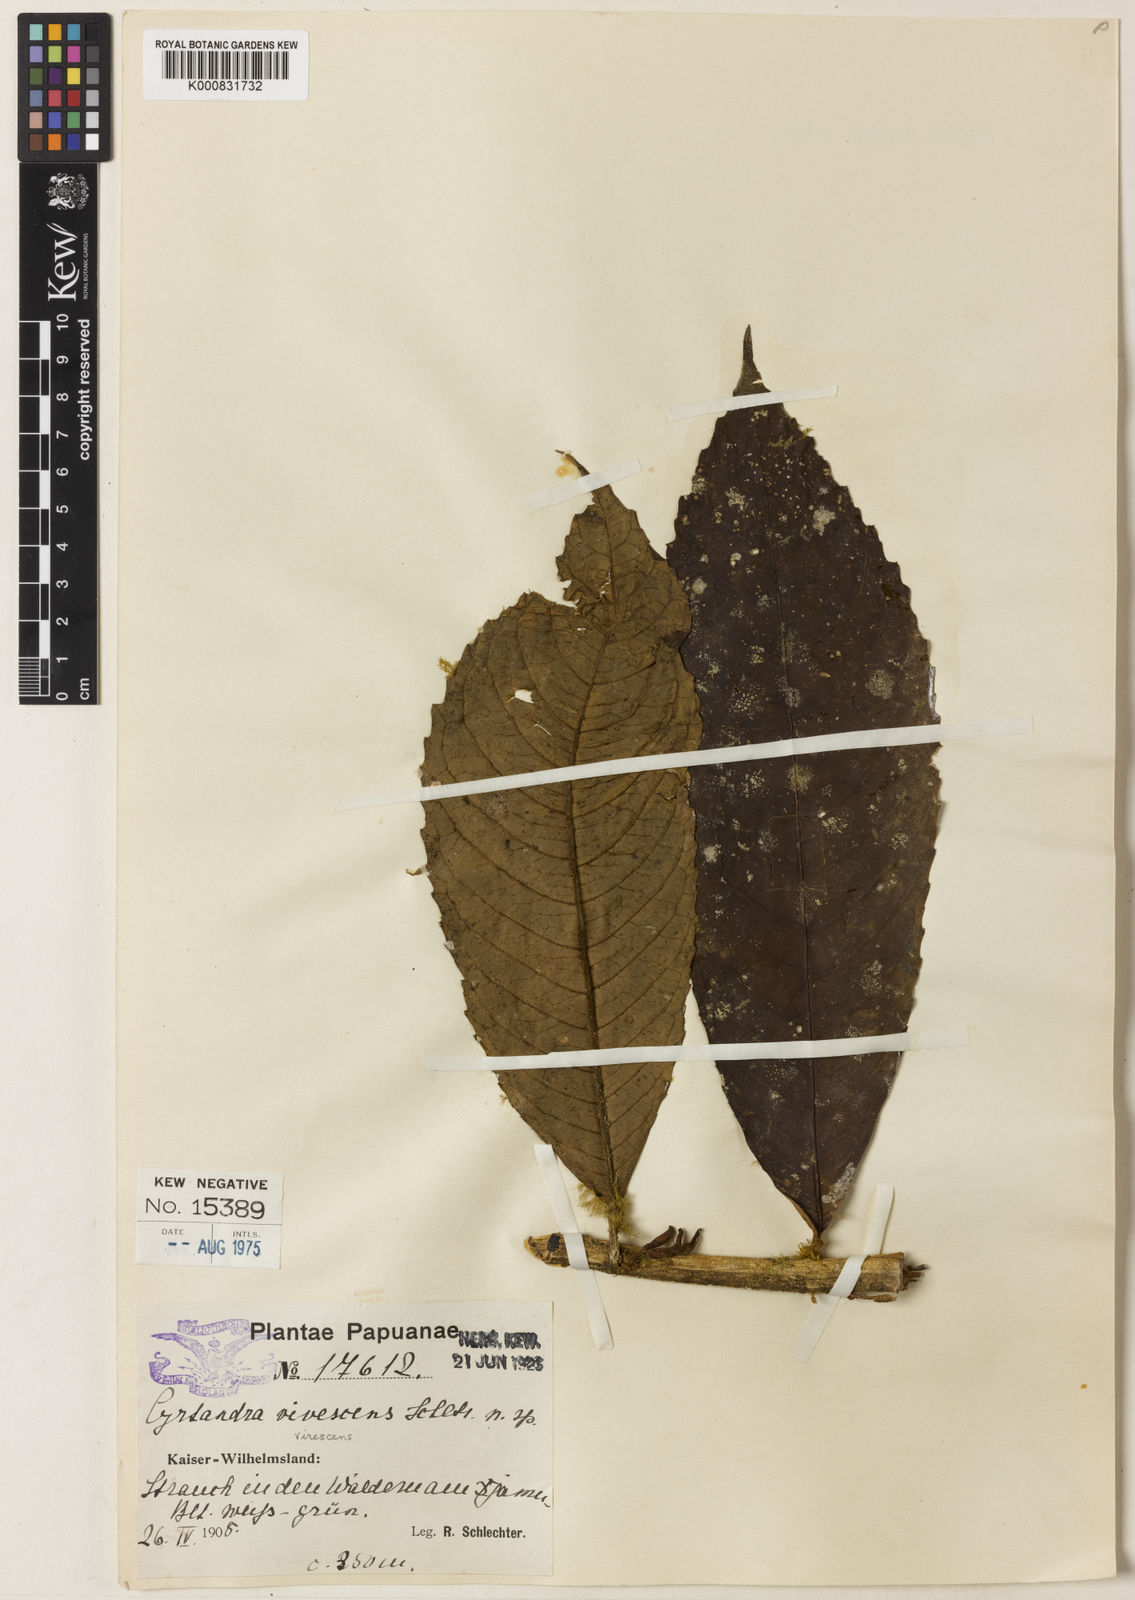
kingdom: Plantae
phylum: Tracheophyta
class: Magnoliopsida
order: Lamiales
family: Gesneriaceae
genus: Cyrtandra
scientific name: Cyrtandra virescens
